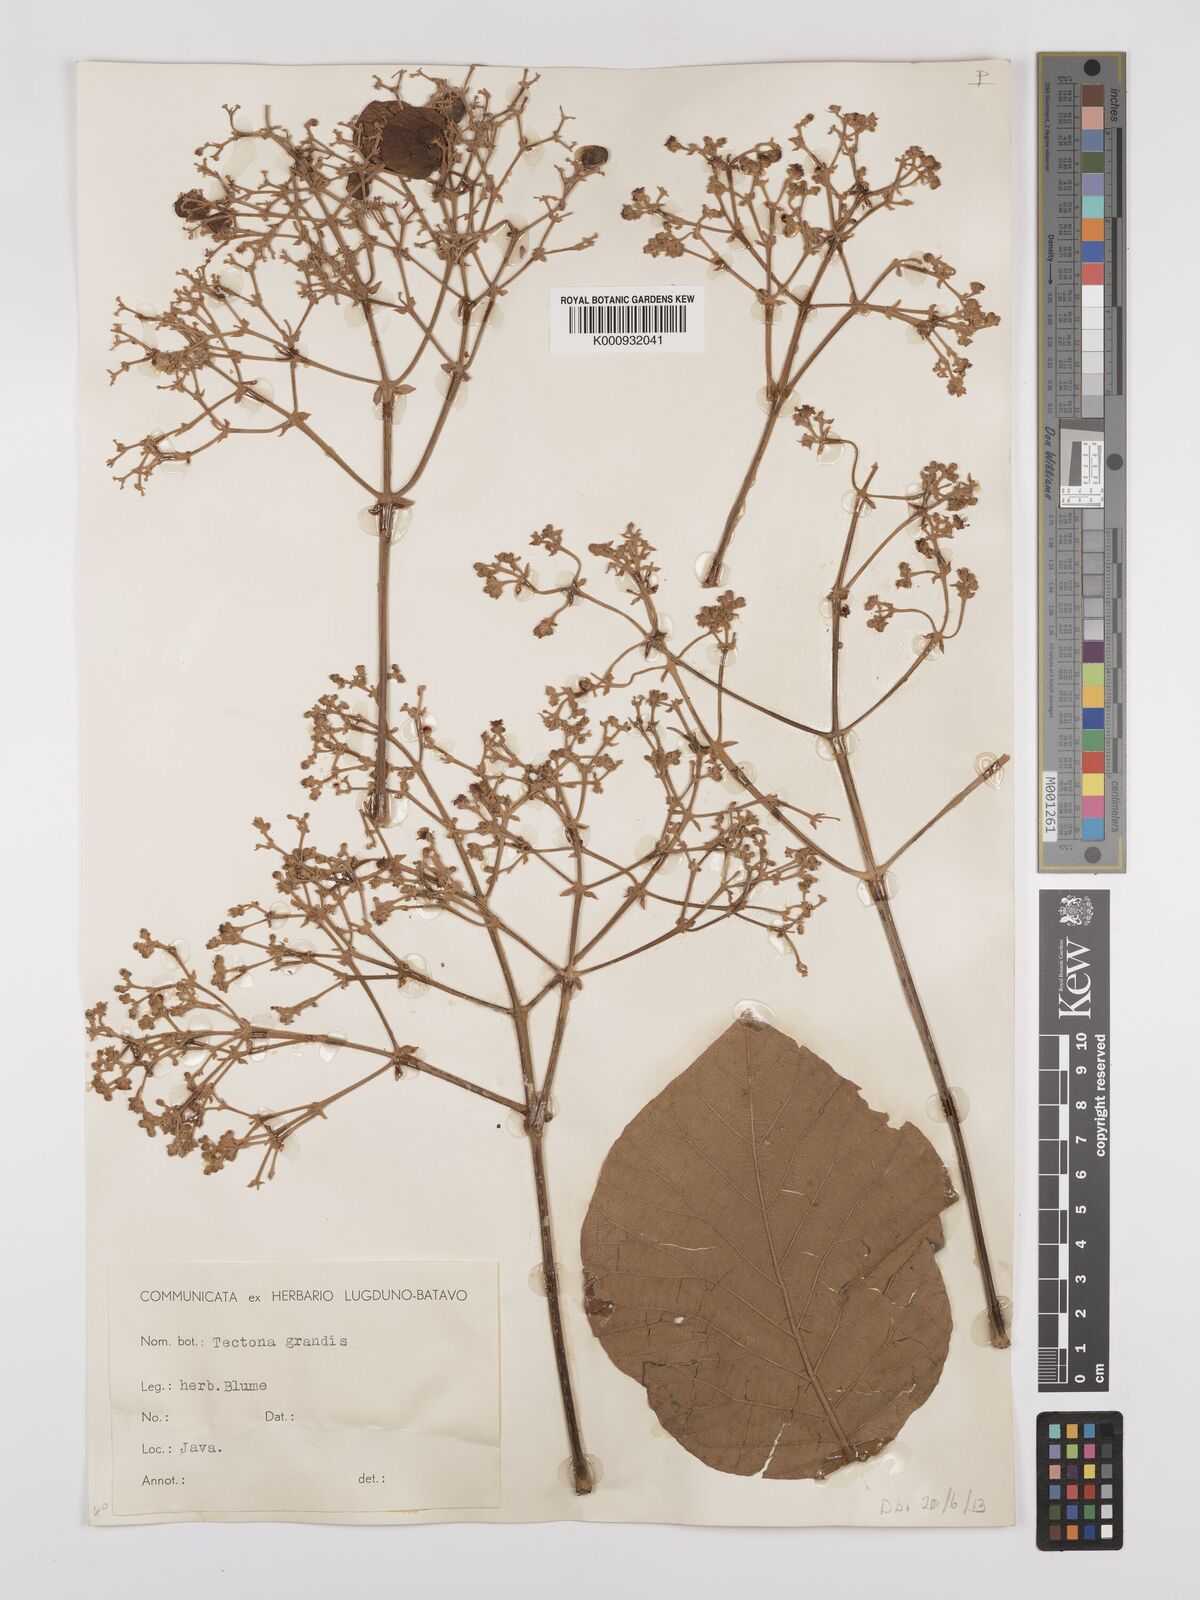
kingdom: Plantae
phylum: Tracheophyta
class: Magnoliopsida
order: Lamiales
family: Lamiaceae
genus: Tectona
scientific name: Tectona grandis
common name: Teak
